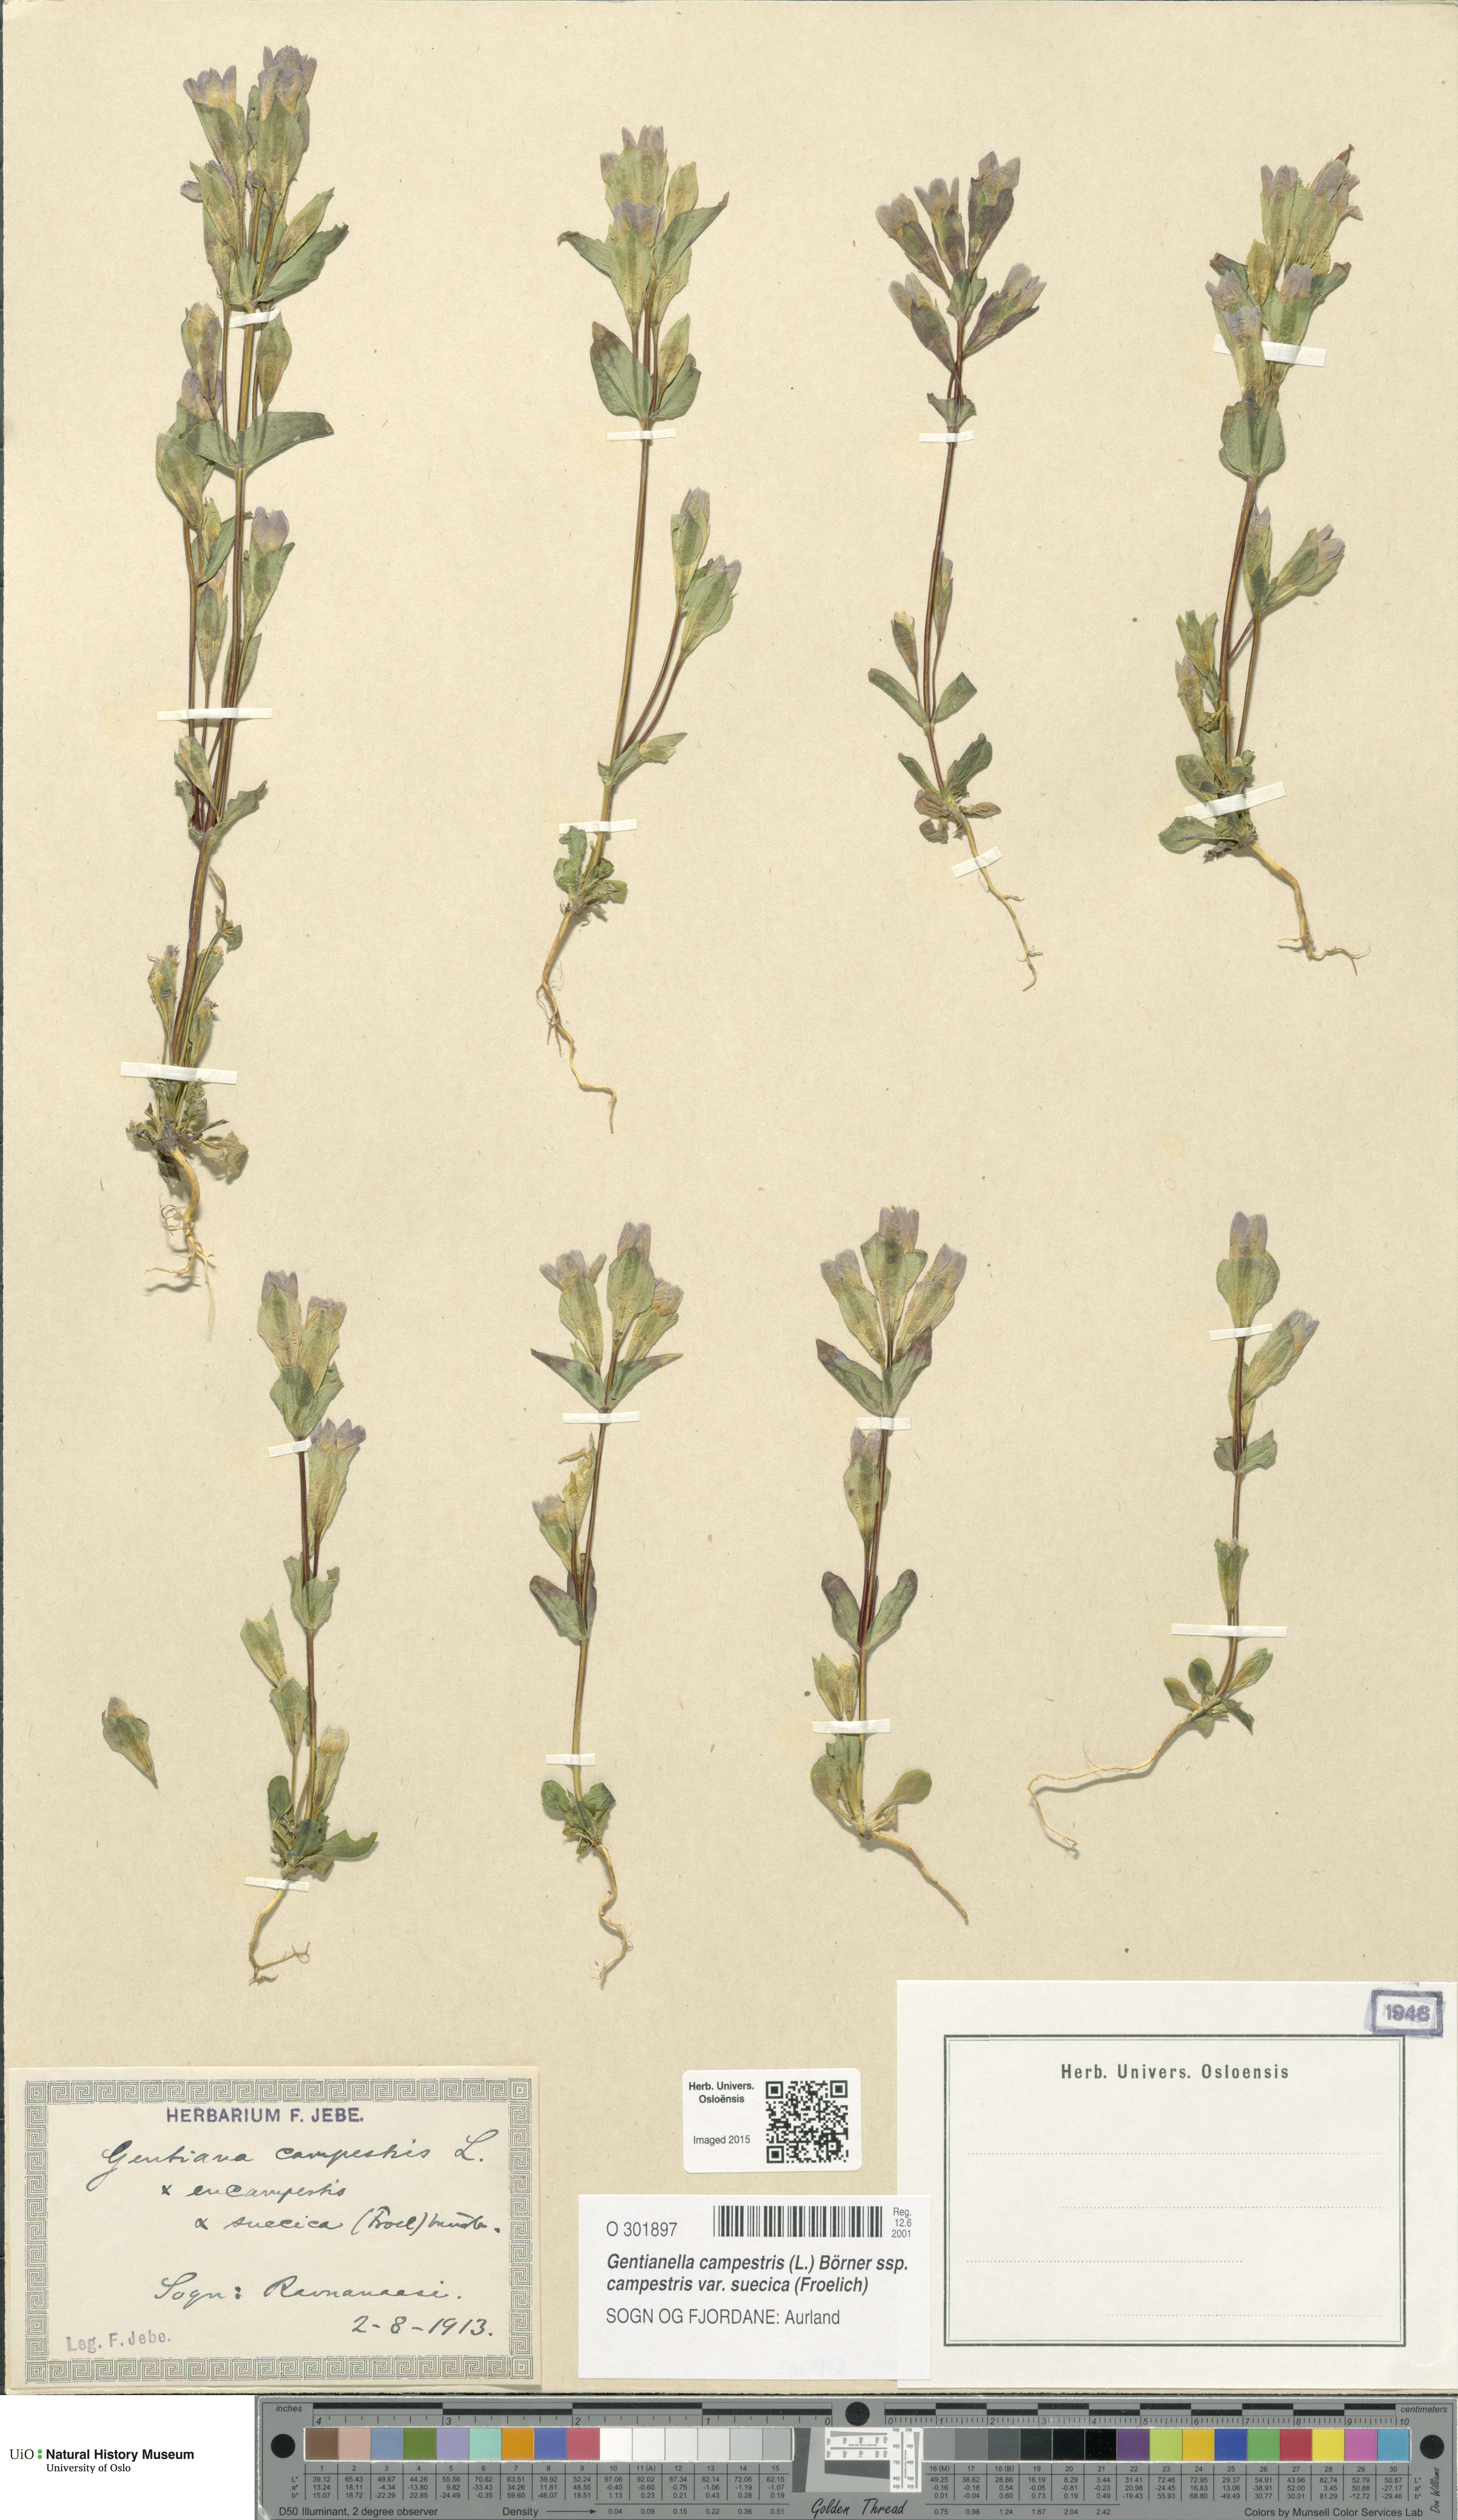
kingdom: Plantae
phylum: Tracheophyta
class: Magnoliopsida
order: Gentianales
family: Gentianaceae
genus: Gentianella
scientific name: Gentianella campestris
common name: Field gentian
